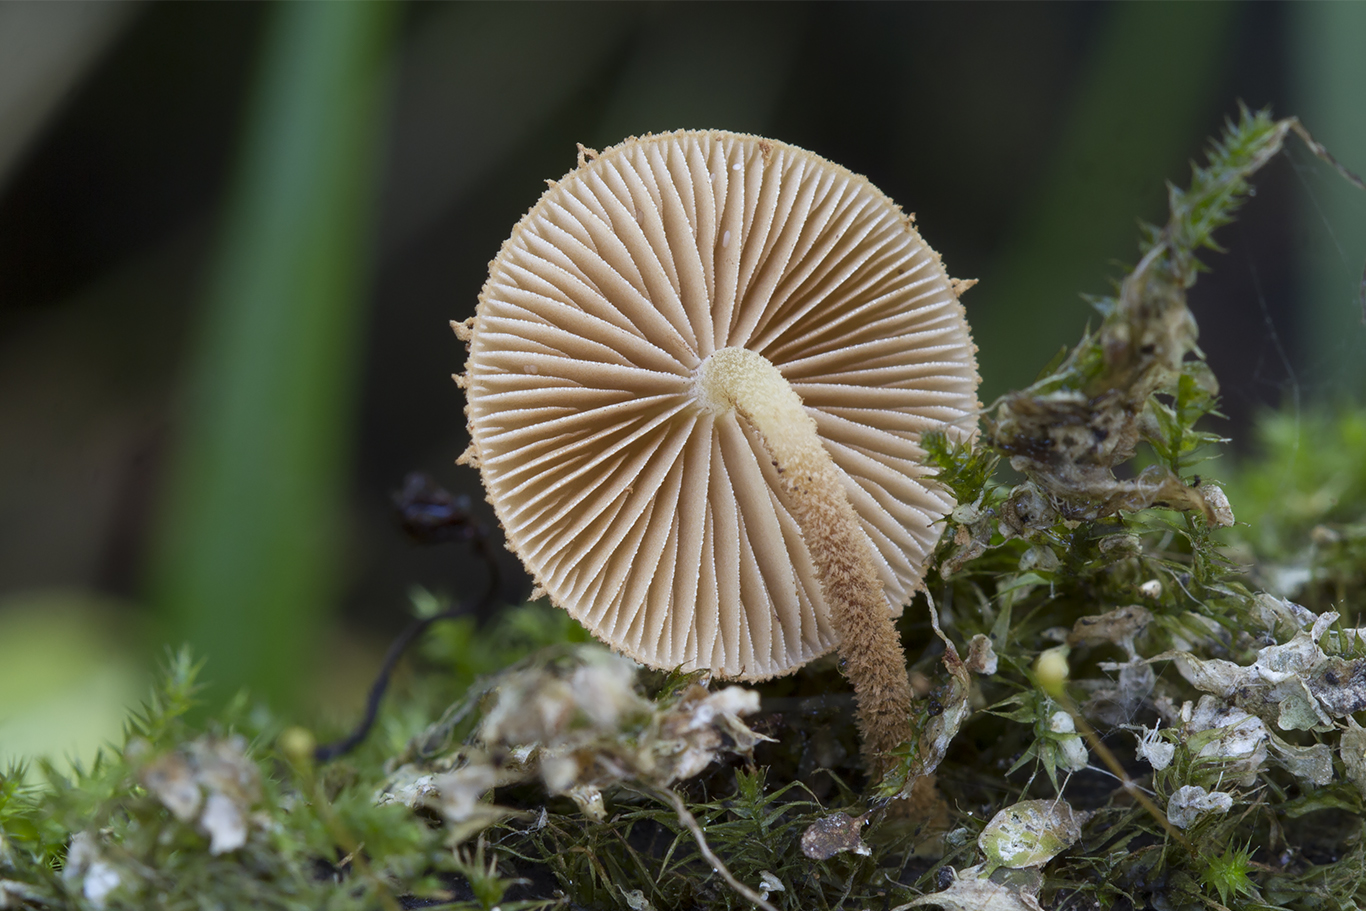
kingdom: Fungi
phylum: Basidiomycota
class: Agaricomycetes
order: Agaricales
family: Tubariaceae
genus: Flammulaster
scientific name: Flammulaster muricatus
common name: pigget grynskælhat
